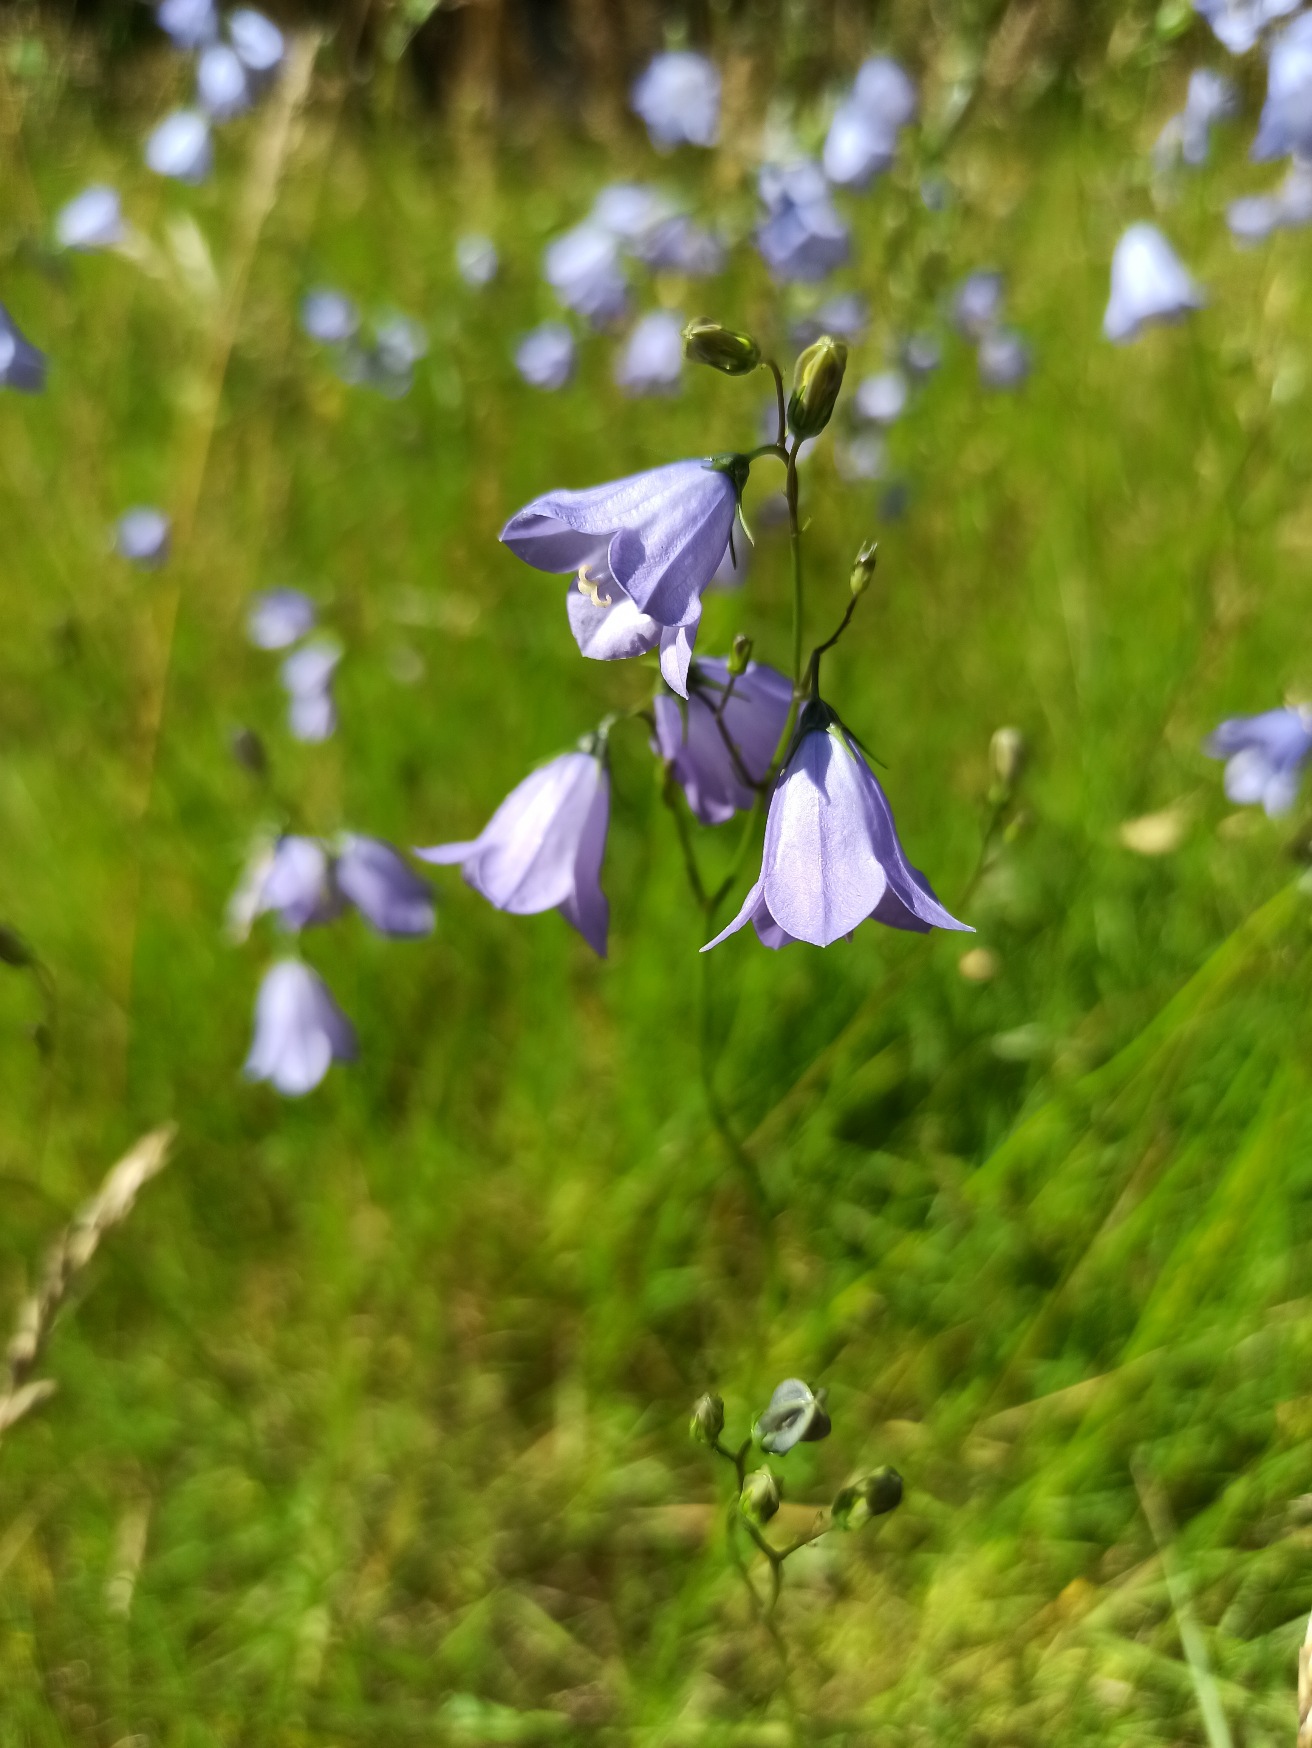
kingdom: Plantae
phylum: Tracheophyta
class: Magnoliopsida
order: Asterales
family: Campanulaceae
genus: Campanula
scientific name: Campanula rotundifolia
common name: Liden klokke
